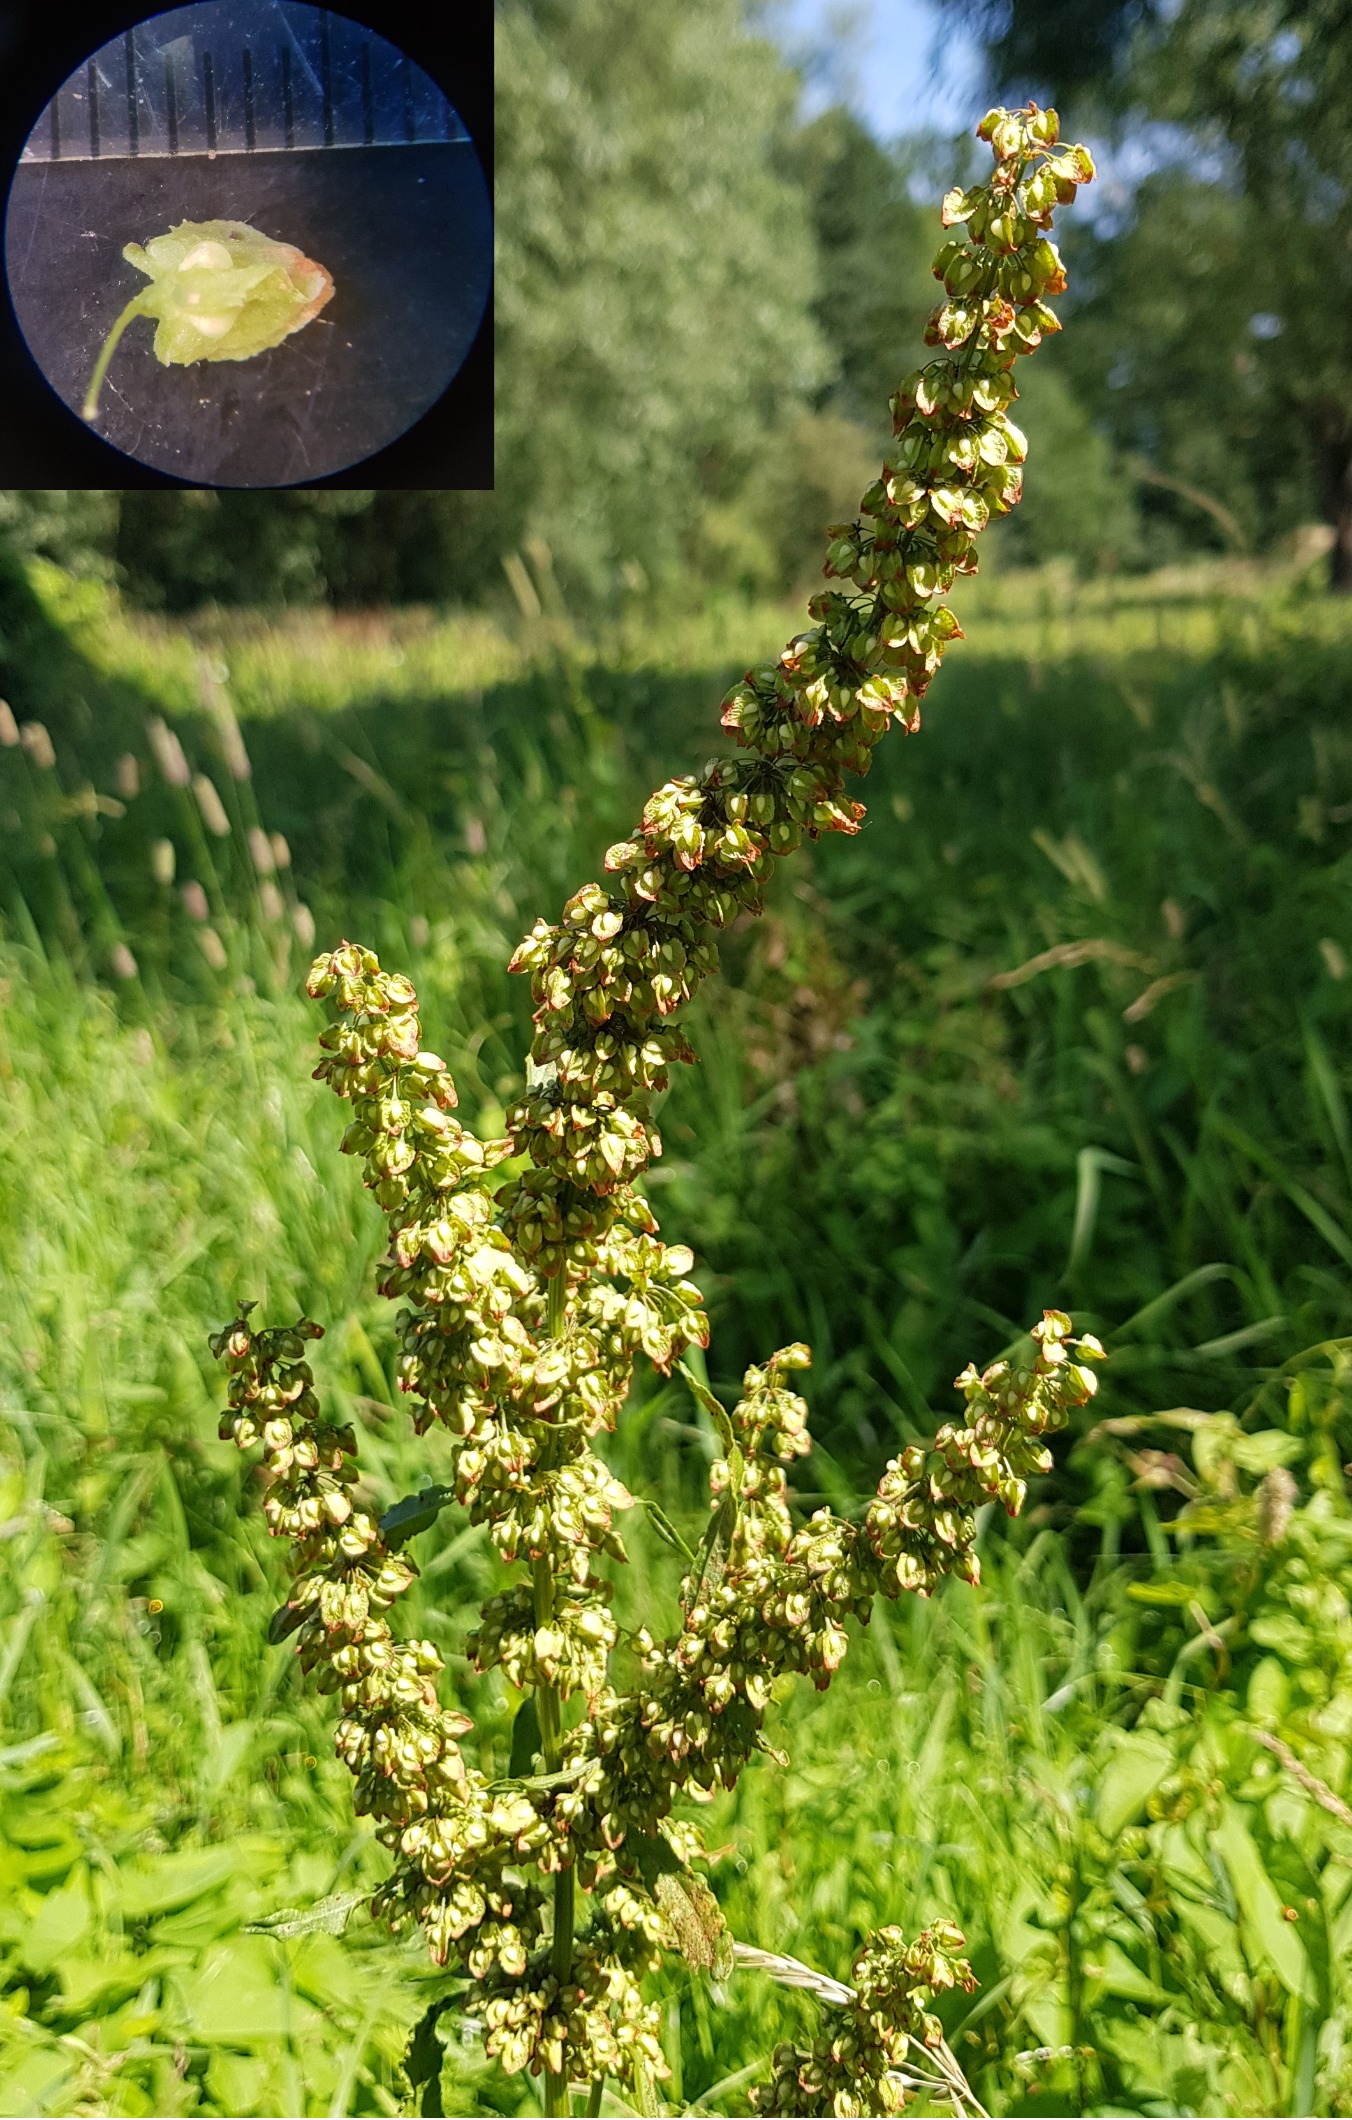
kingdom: Plantae
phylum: Tracheophyta
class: Magnoliopsida
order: Caryophyllales
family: Polygonaceae
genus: Rumex
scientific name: Rumex crispus
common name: Kruset skræppe
